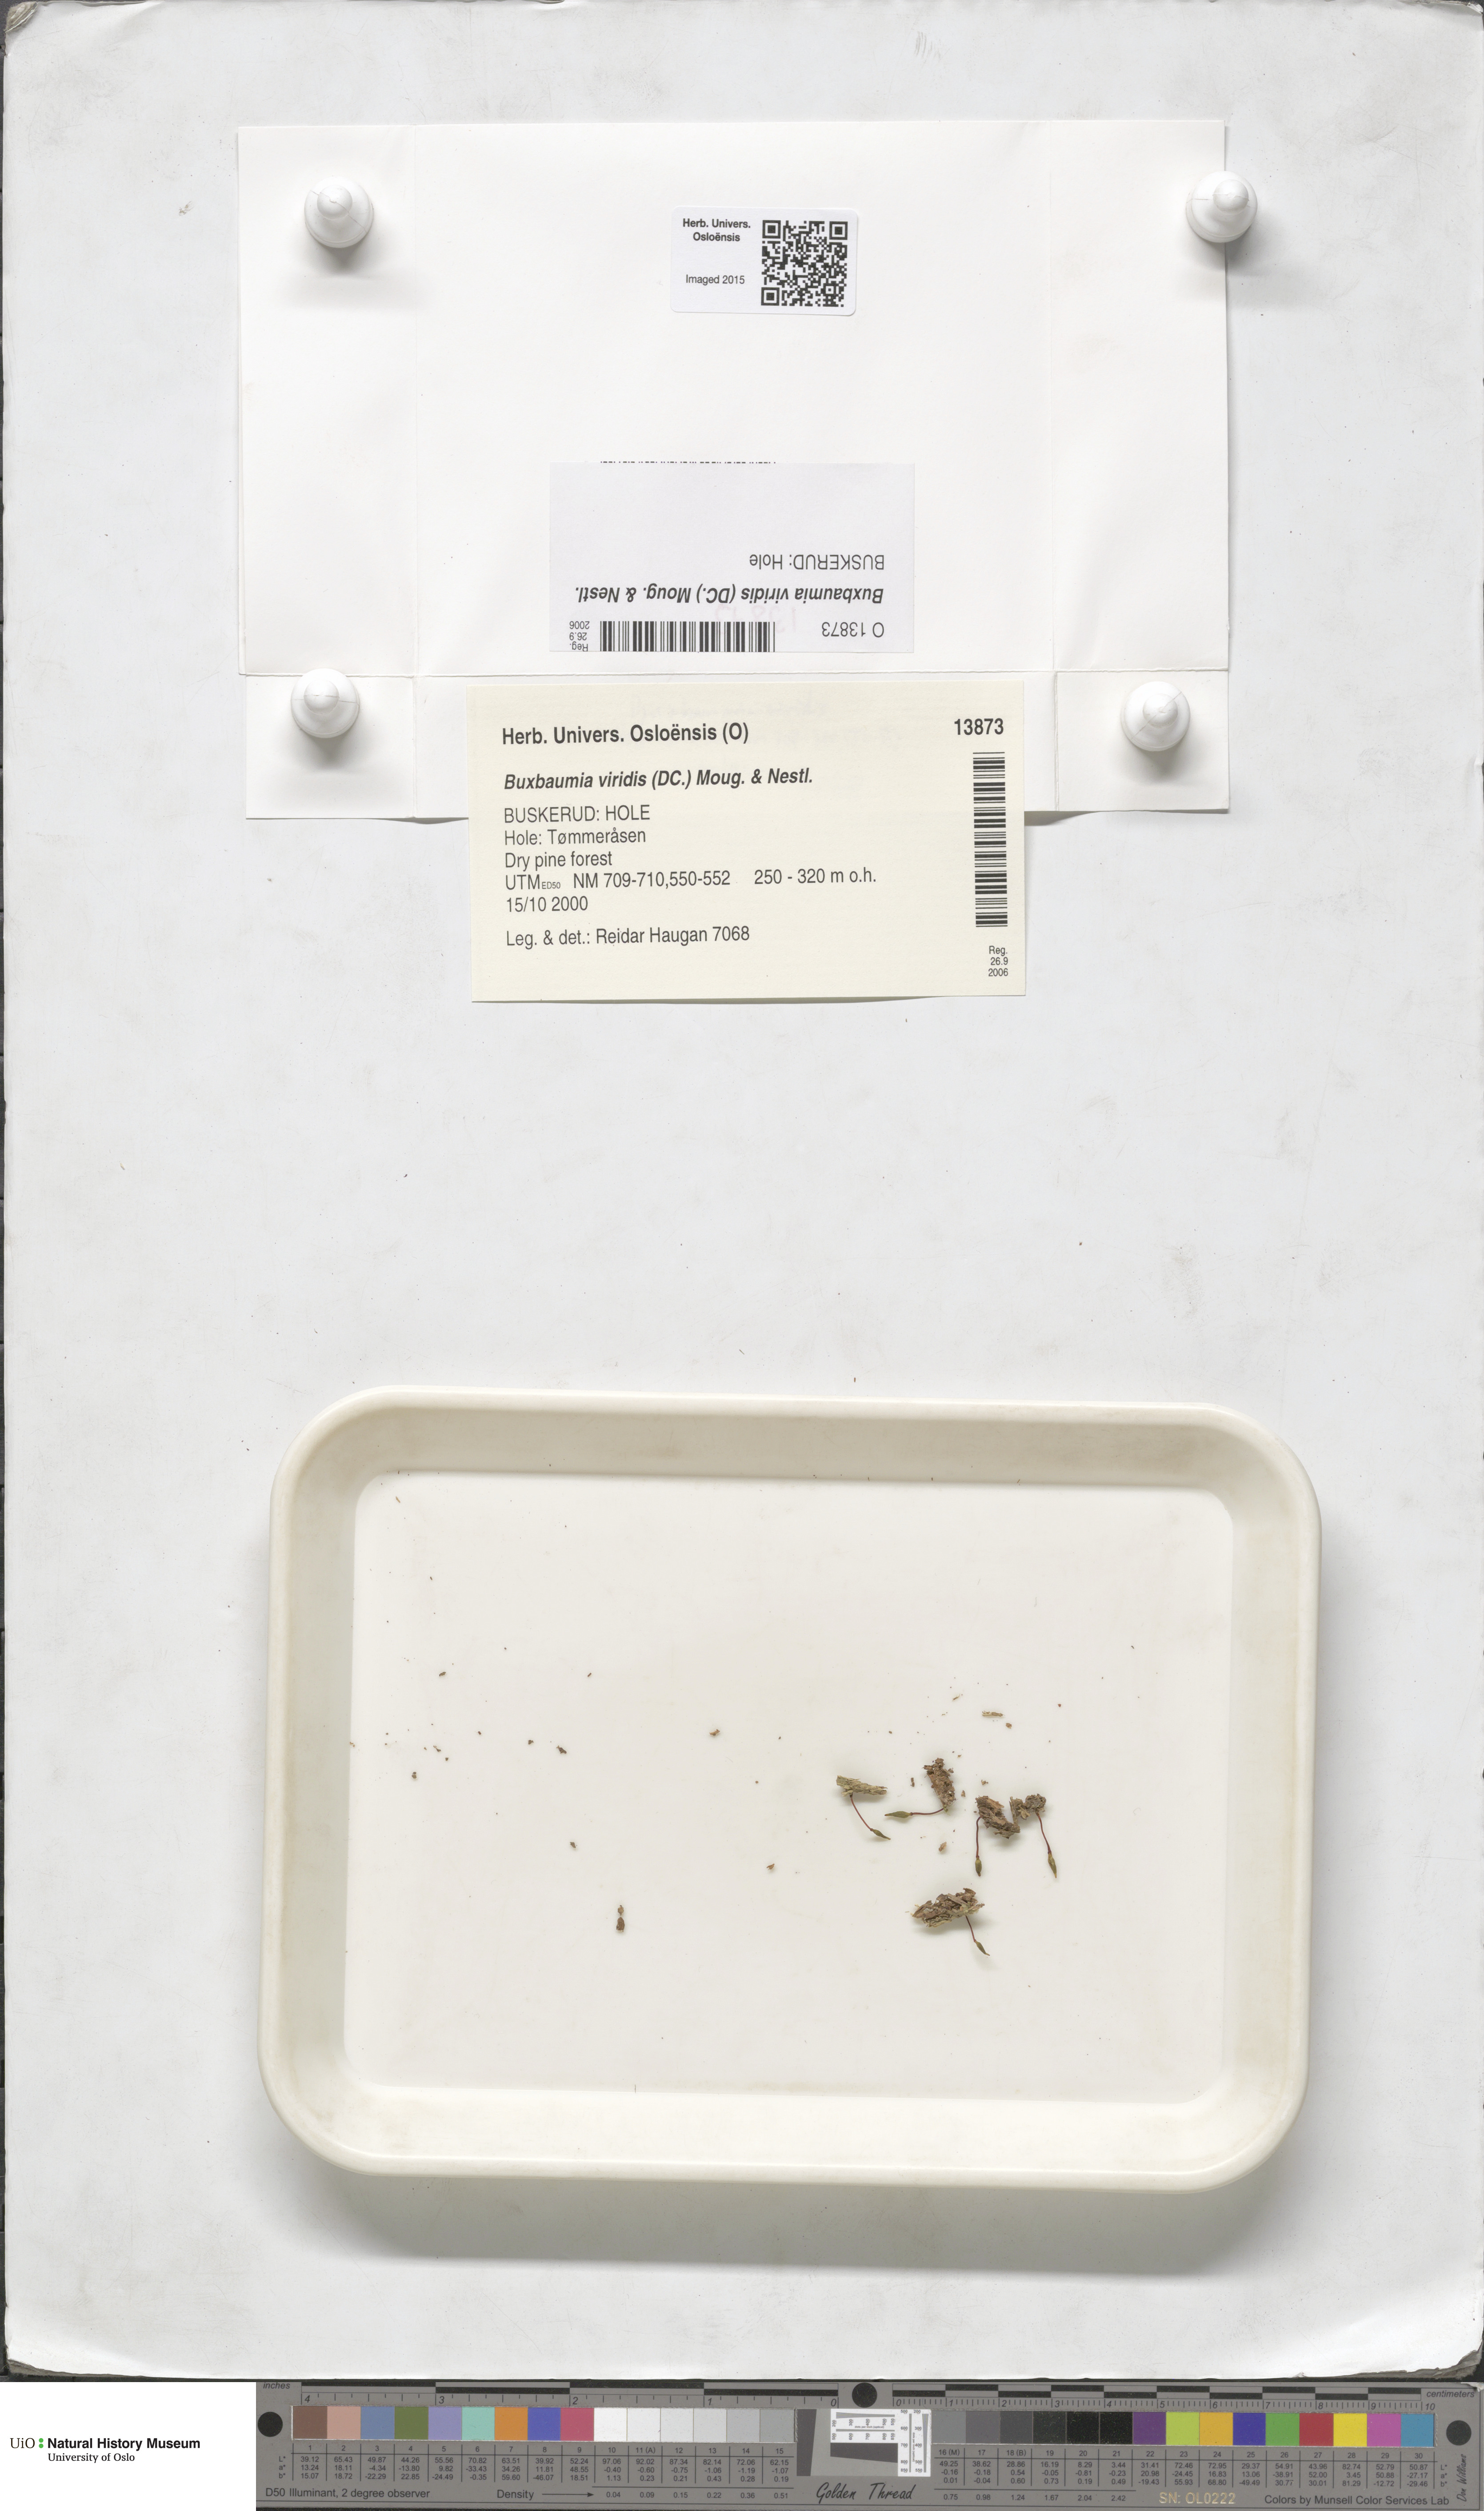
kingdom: Plantae
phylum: Bryophyta
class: Bryopsida
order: Buxbaumiales
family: Buxbaumiaceae
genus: Buxbaumia
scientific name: Buxbaumia viridis
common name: Green shield-moss
